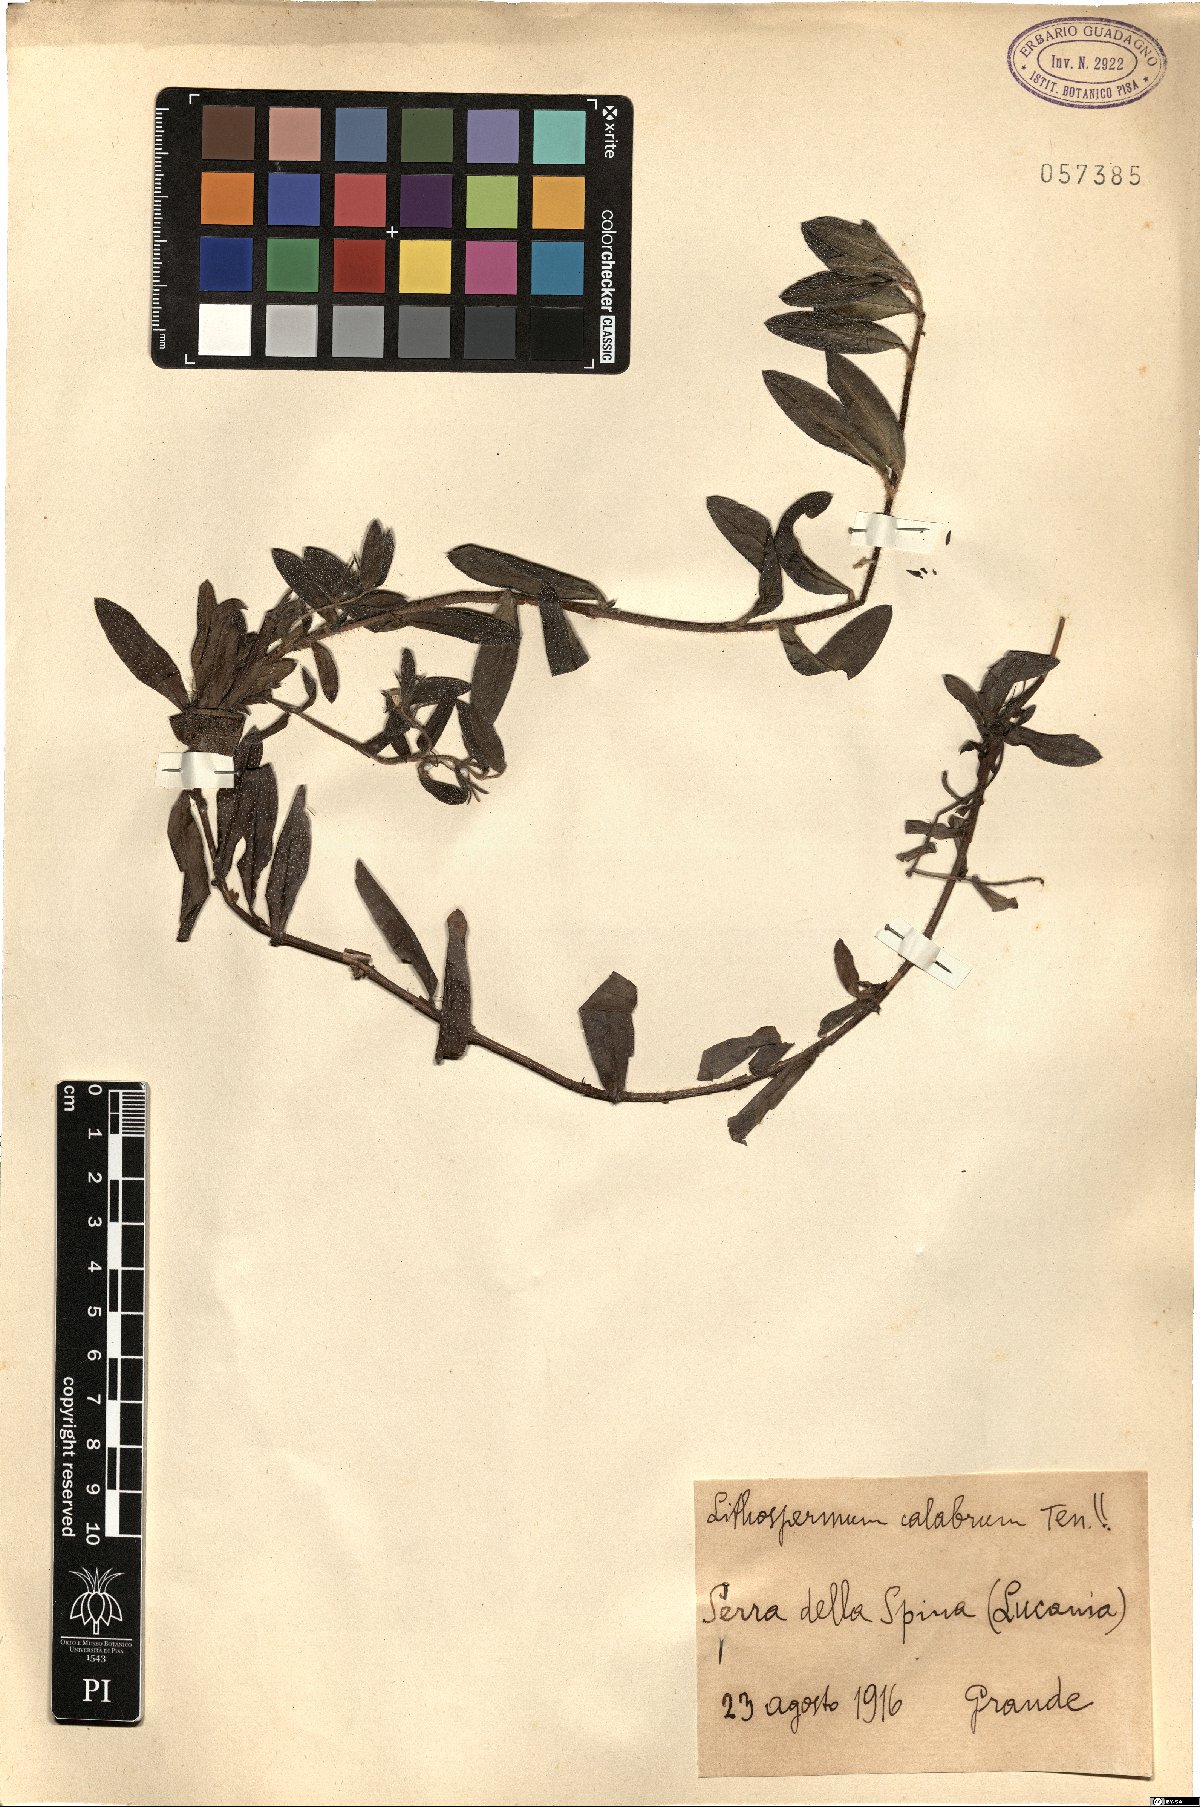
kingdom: Plantae
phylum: Tracheophyta
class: Magnoliopsida
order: Boraginales
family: Boraginaceae
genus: Aegonychon
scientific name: Aegonychon calabrum
